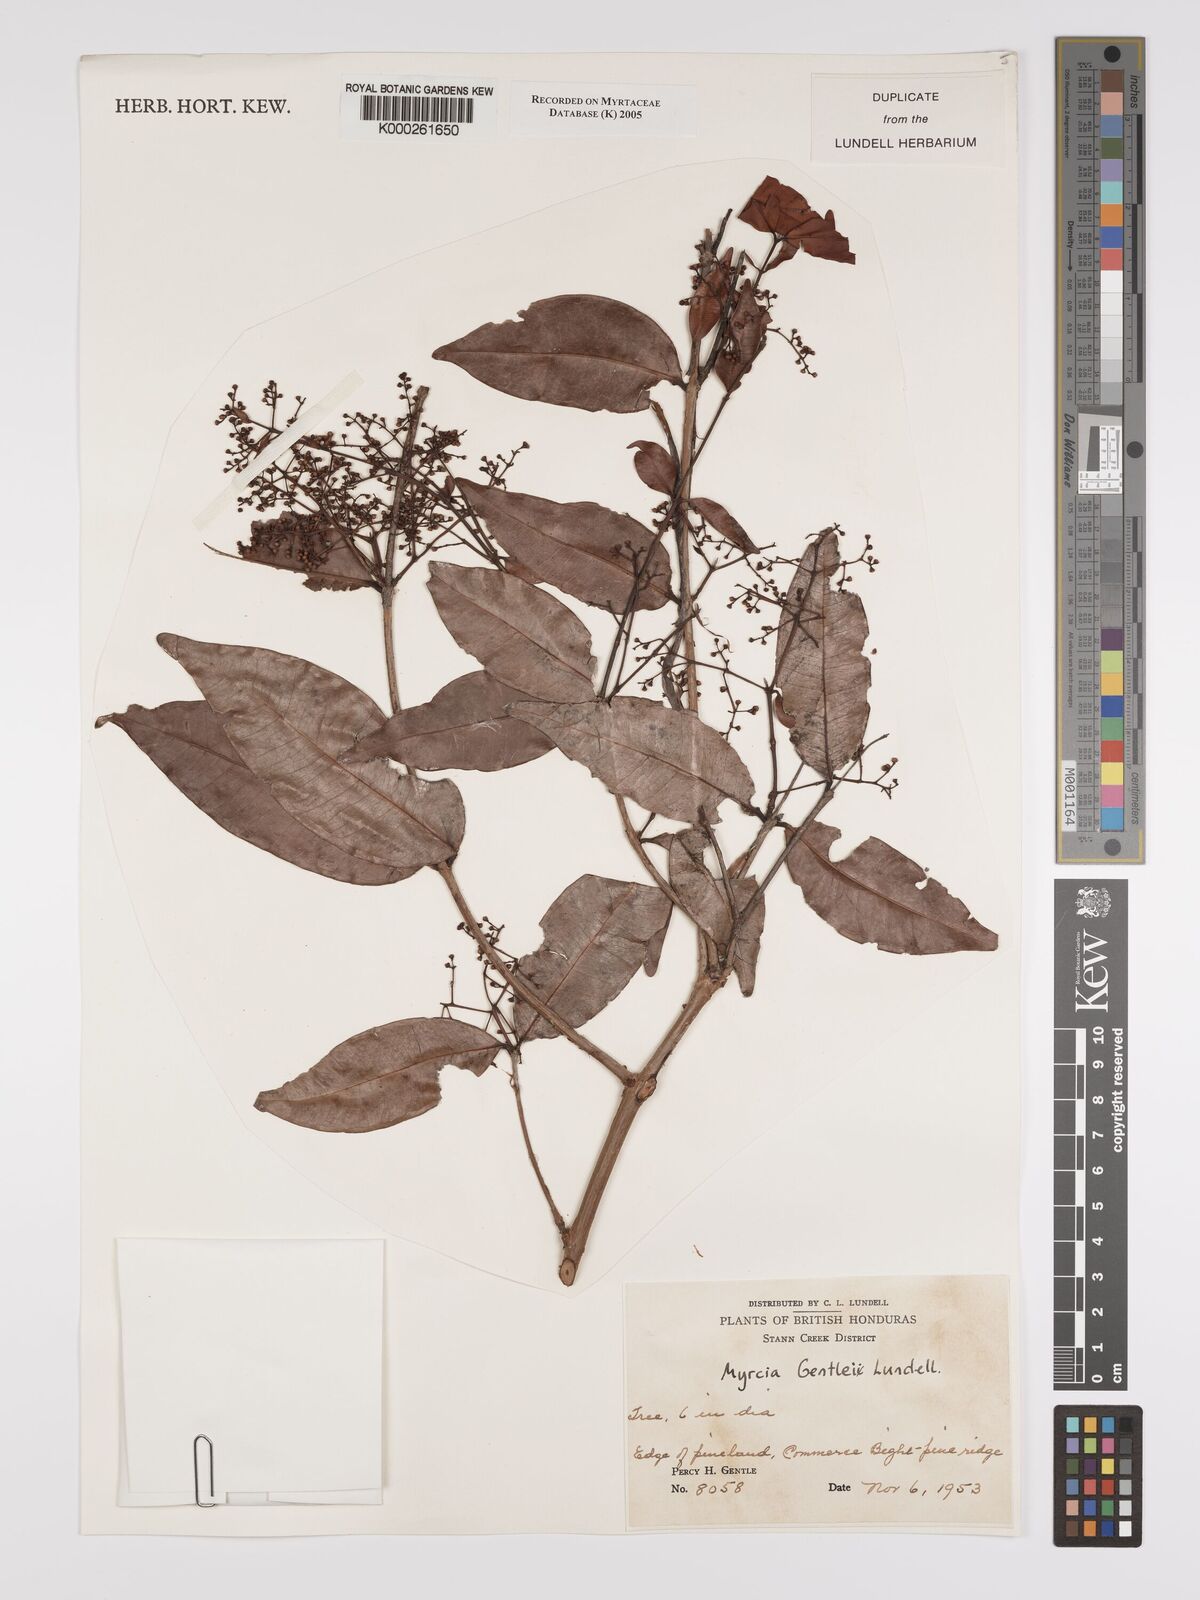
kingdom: Plantae
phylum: Tracheophyta
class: Magnoliopsida
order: Myrtales
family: Myrtaceae
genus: Myrcia
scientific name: Myrcia amazonica
